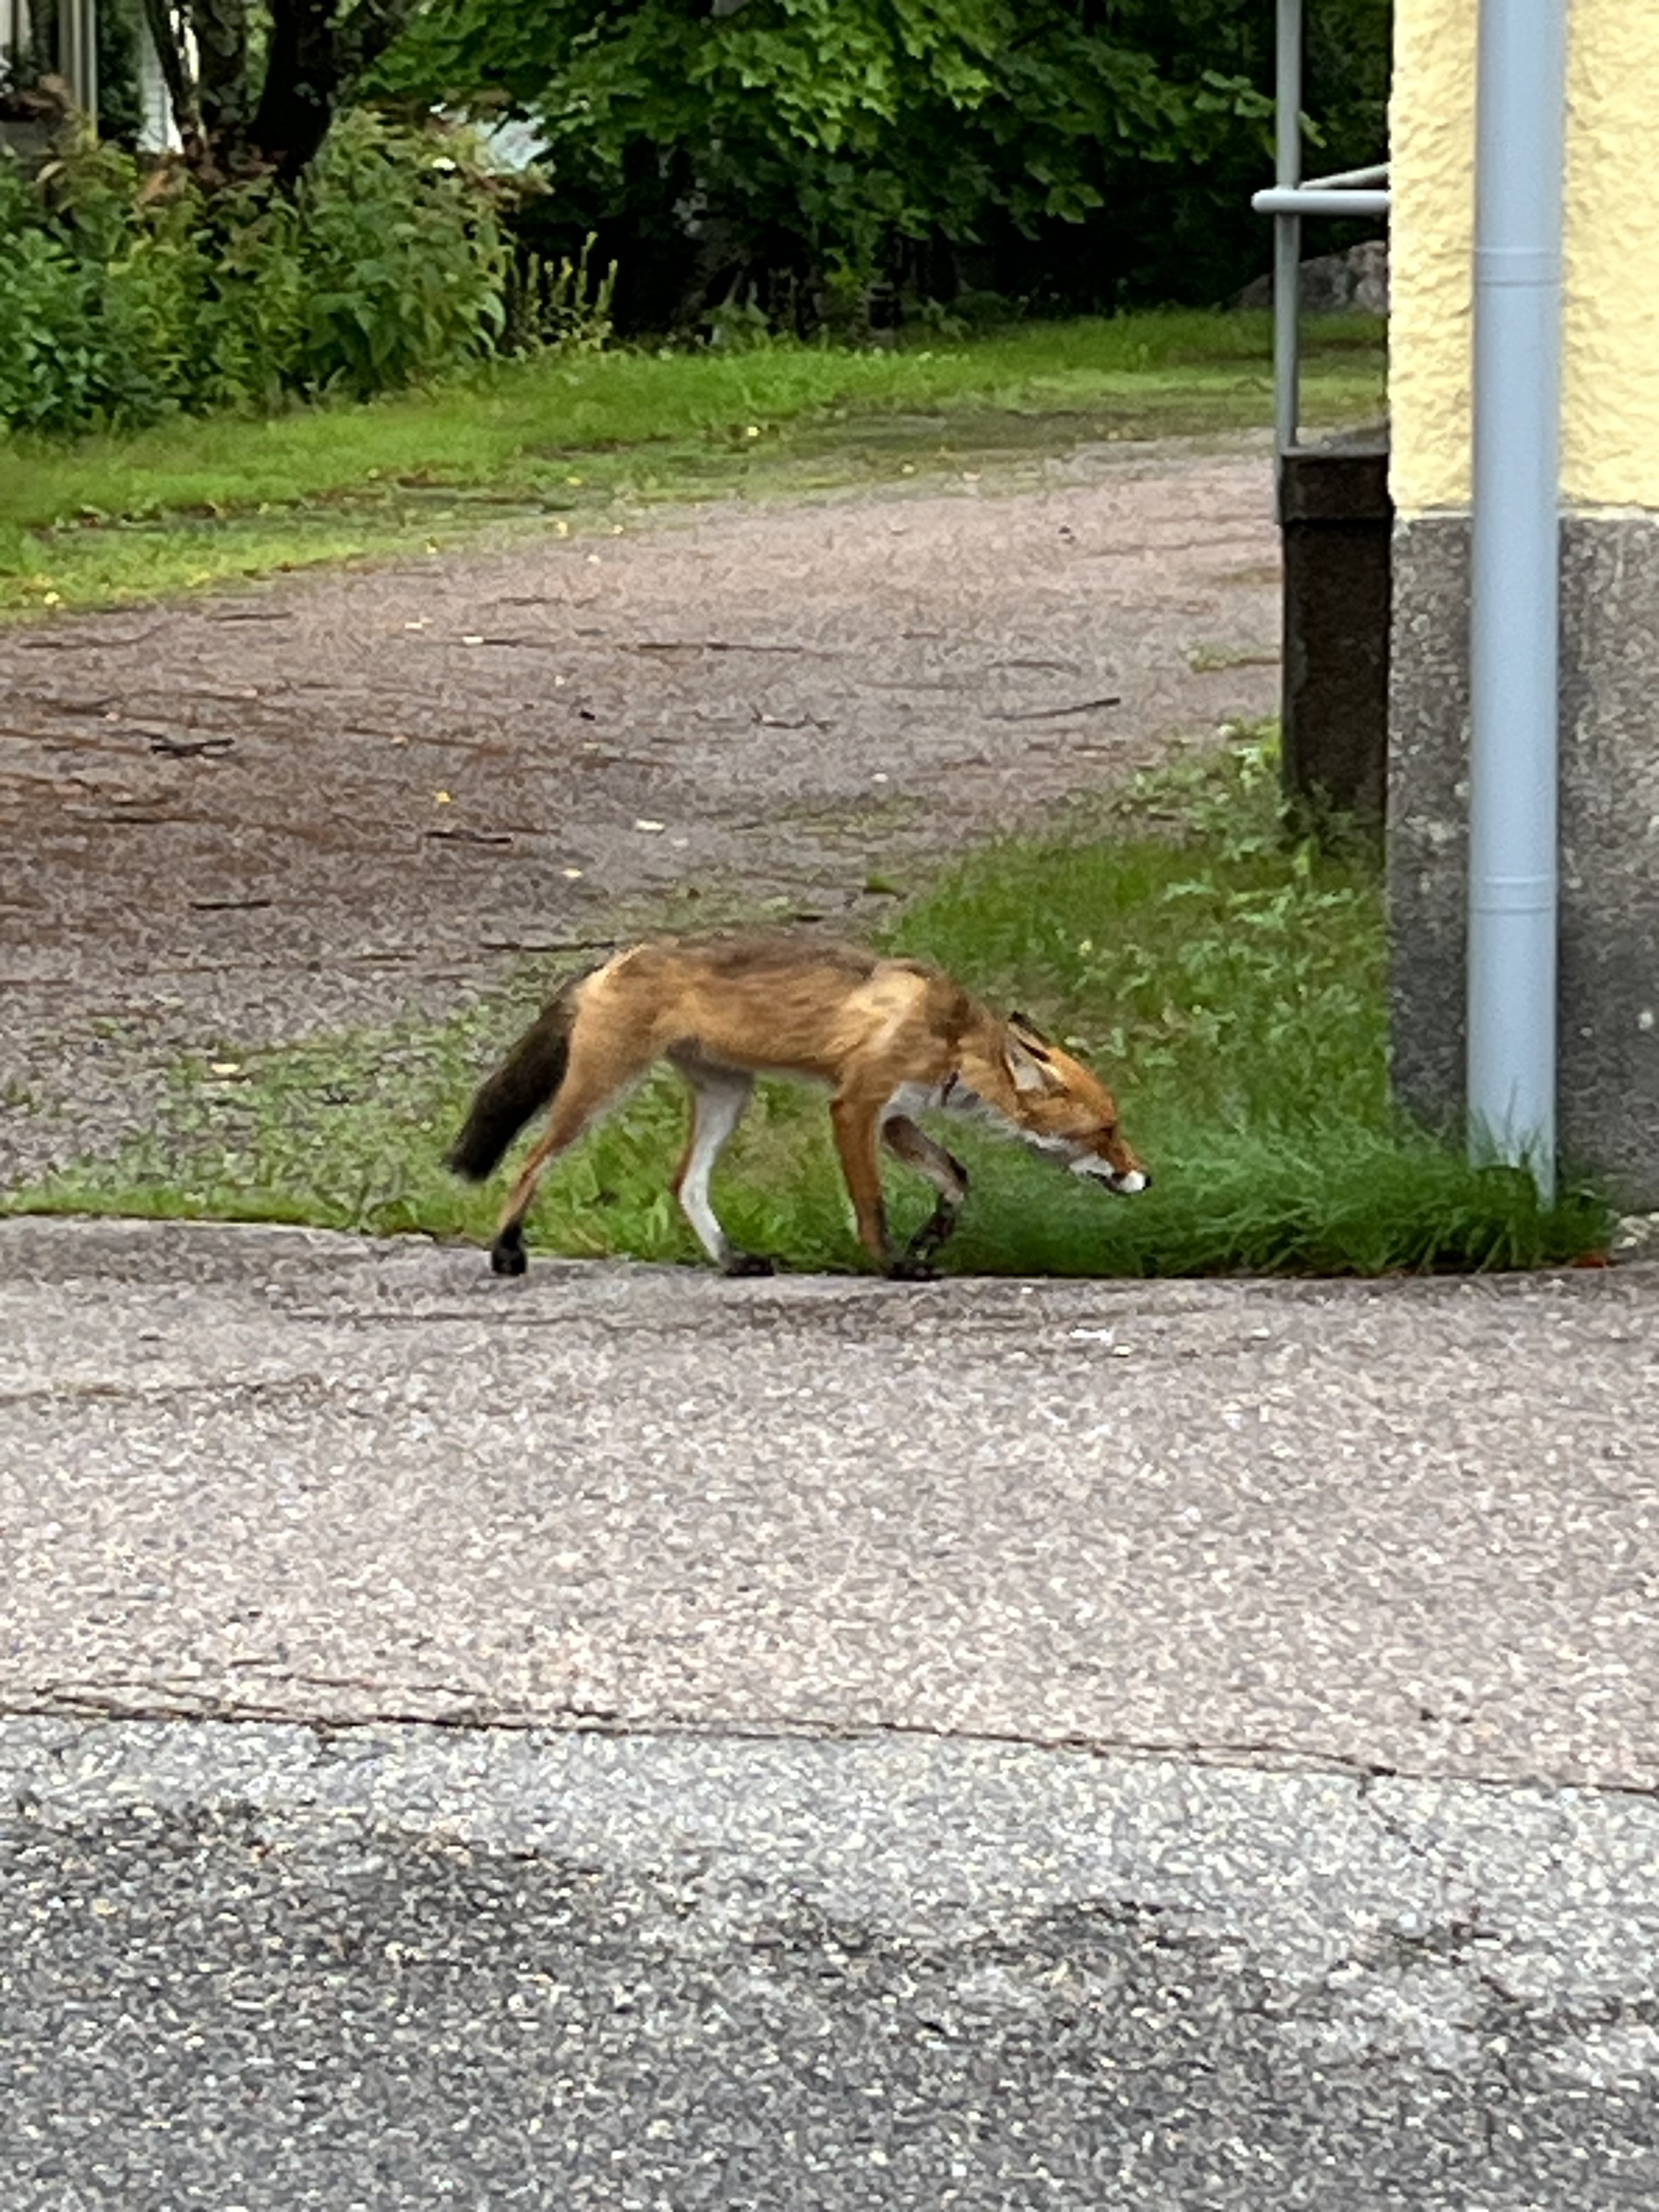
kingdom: Animalia
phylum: Chordata
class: Mammalia
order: Carnivora
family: Canidae
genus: Vulpes
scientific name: Vulpes vulpes
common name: Red fox
